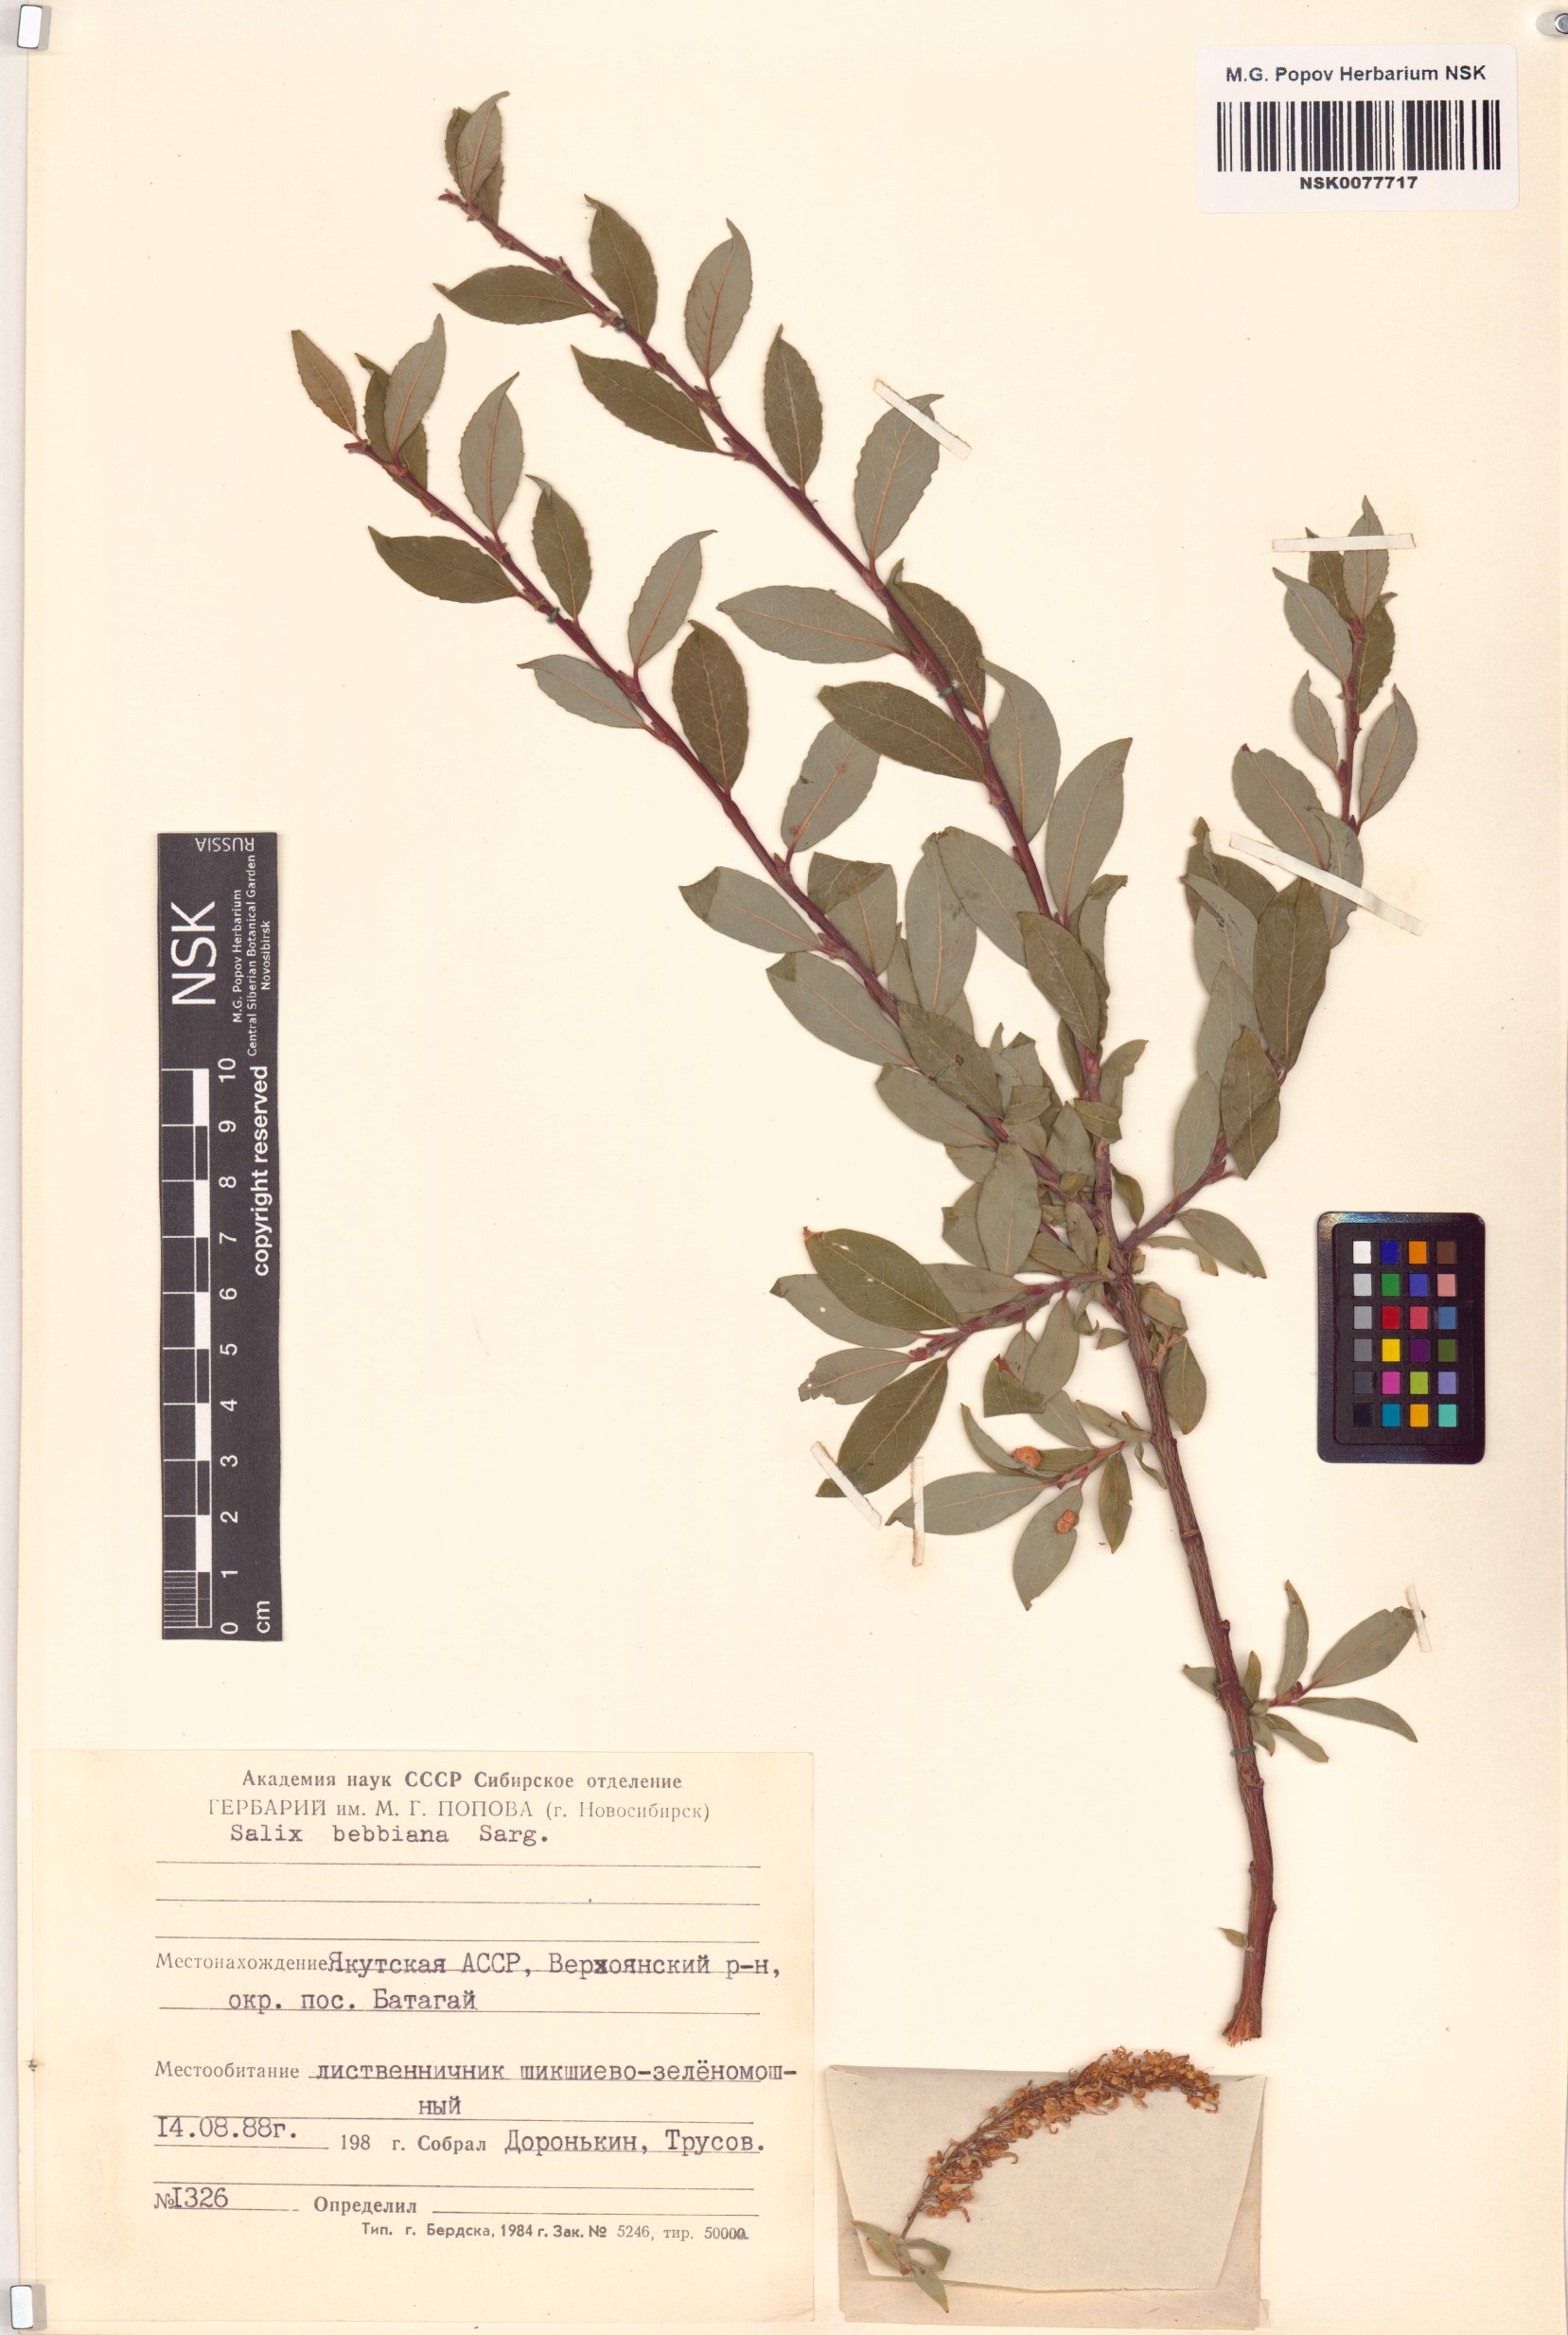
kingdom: Plantae
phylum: Tracheophyta
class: Magnoliopsida
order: Malpighiales
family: Salicaceae
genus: Salix
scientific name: Salix bebbiana
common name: Bebb's willow
